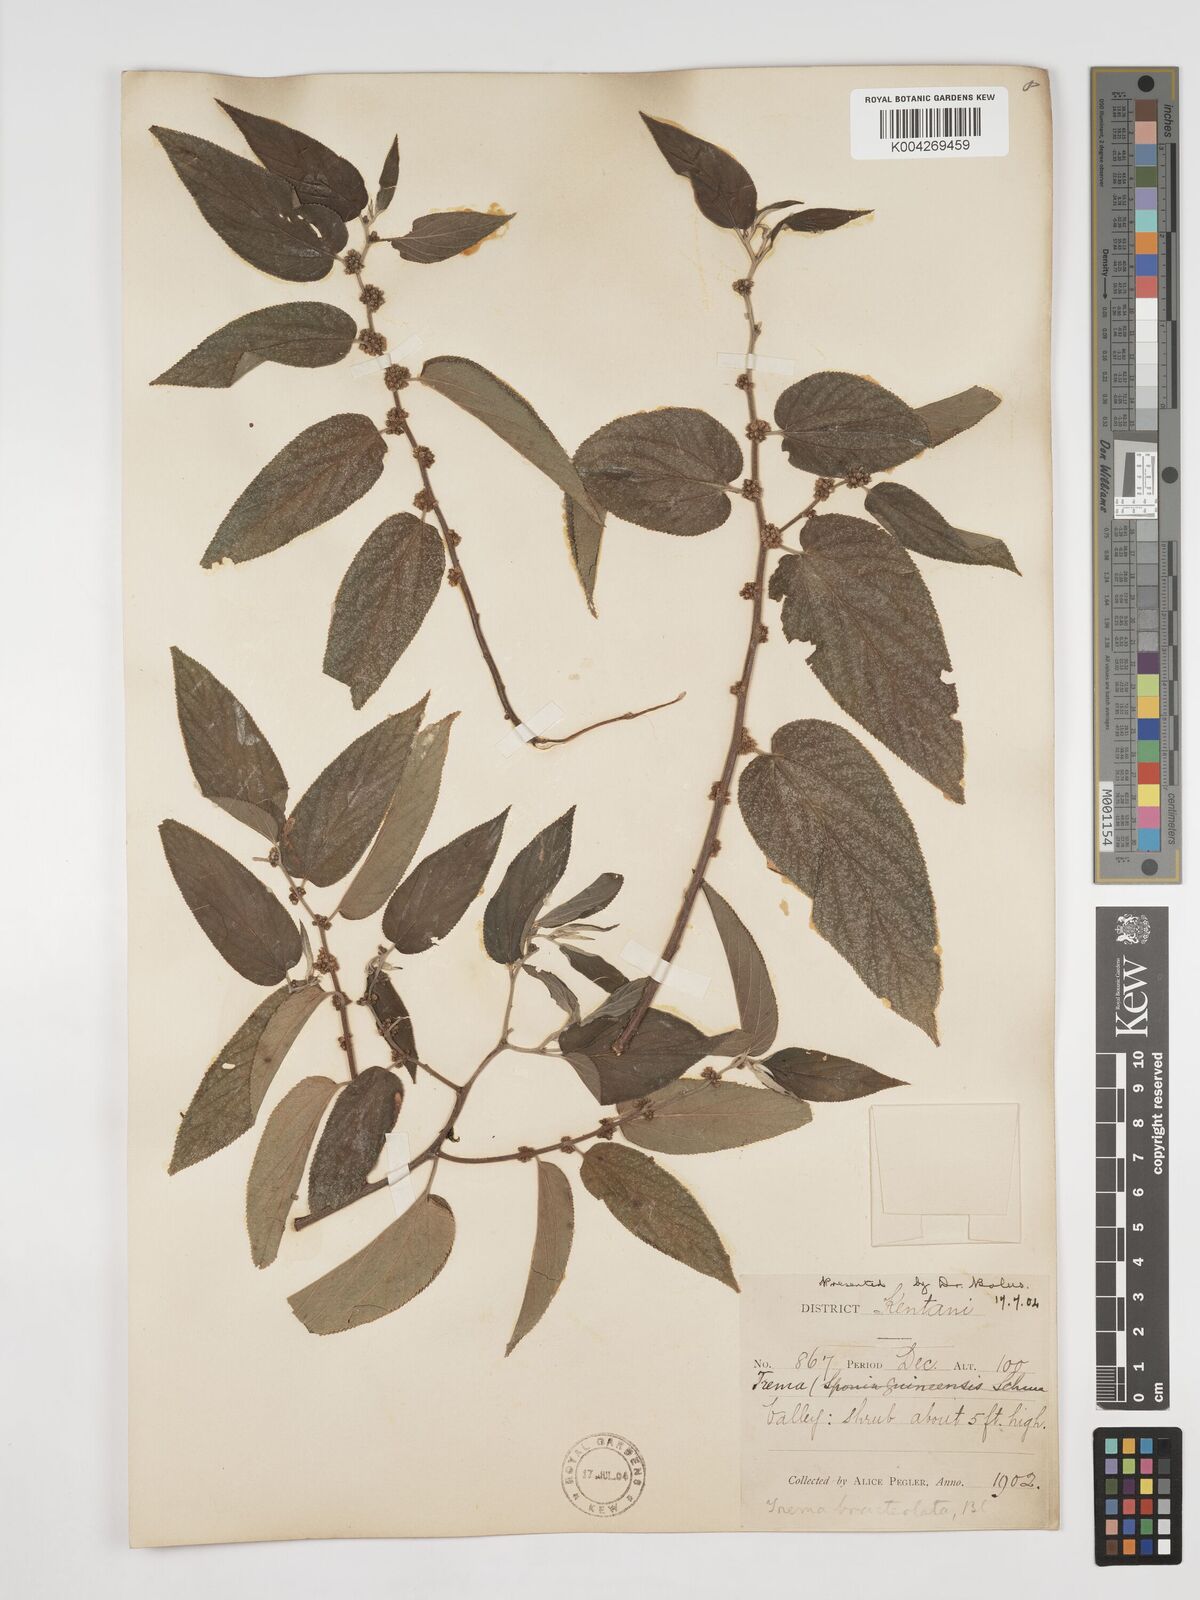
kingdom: Plantae
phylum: Tracheophyta
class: Magnoliopsida
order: Rosales
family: Cannabaceae
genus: Trema
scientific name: Trema orientale
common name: Indian charcoal tree
